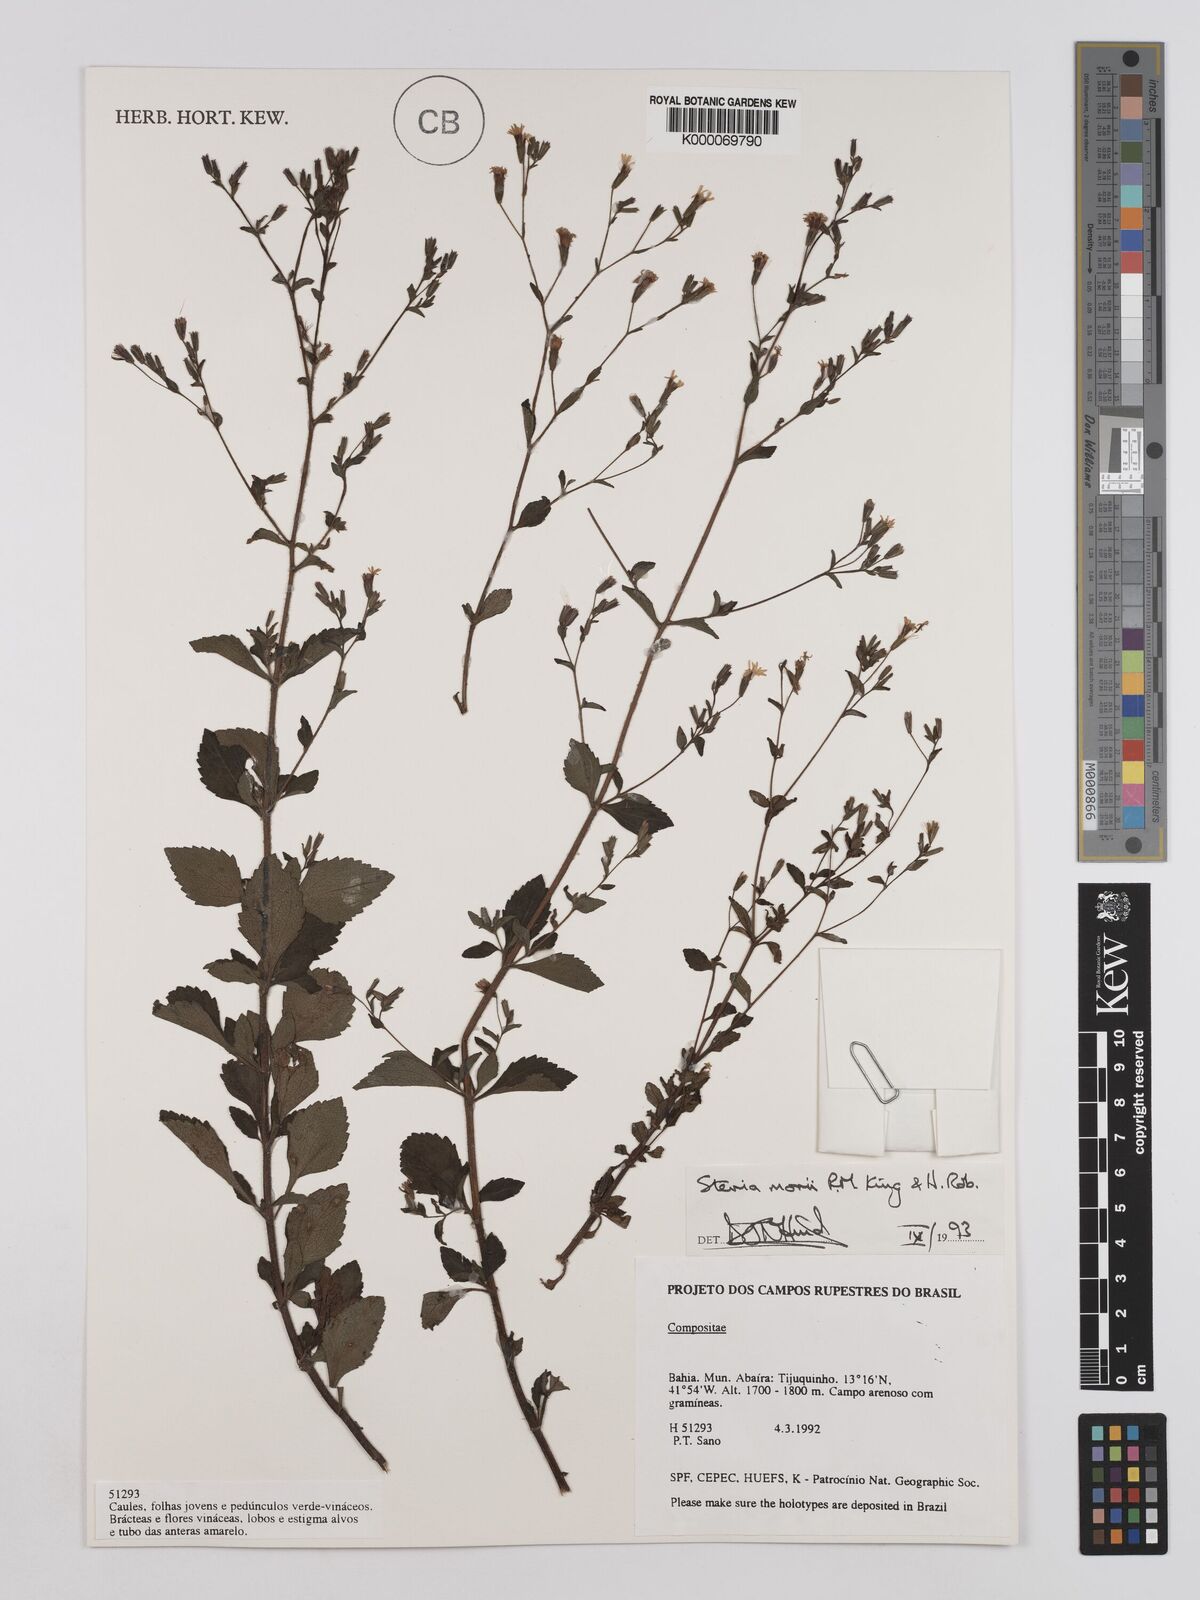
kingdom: Plantae
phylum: Tracheophyta
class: Magnoliopsida
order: Asterales
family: Asteraceae
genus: Stevia
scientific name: Stevia morii
